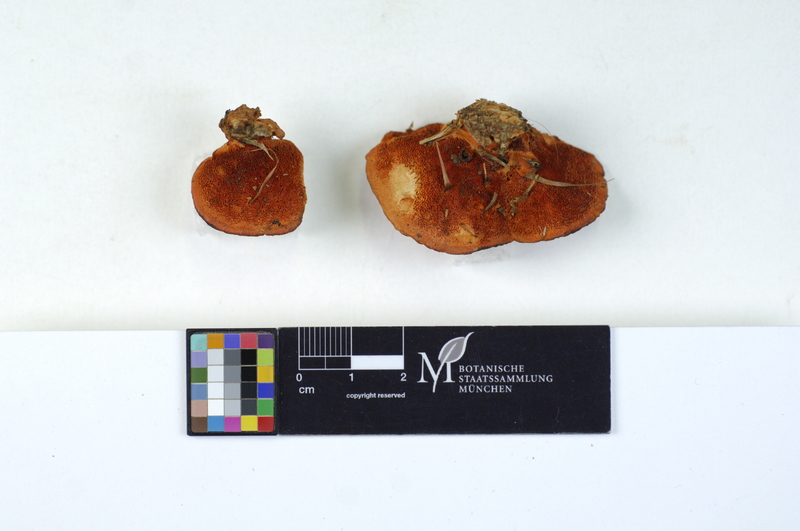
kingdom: Fungi
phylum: Basidiomycota
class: Agaricomycetes
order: Polyporales
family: Polyporaceae
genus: Trametes
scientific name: Trametes cinnabarina
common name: Northern cinnabar polypore
